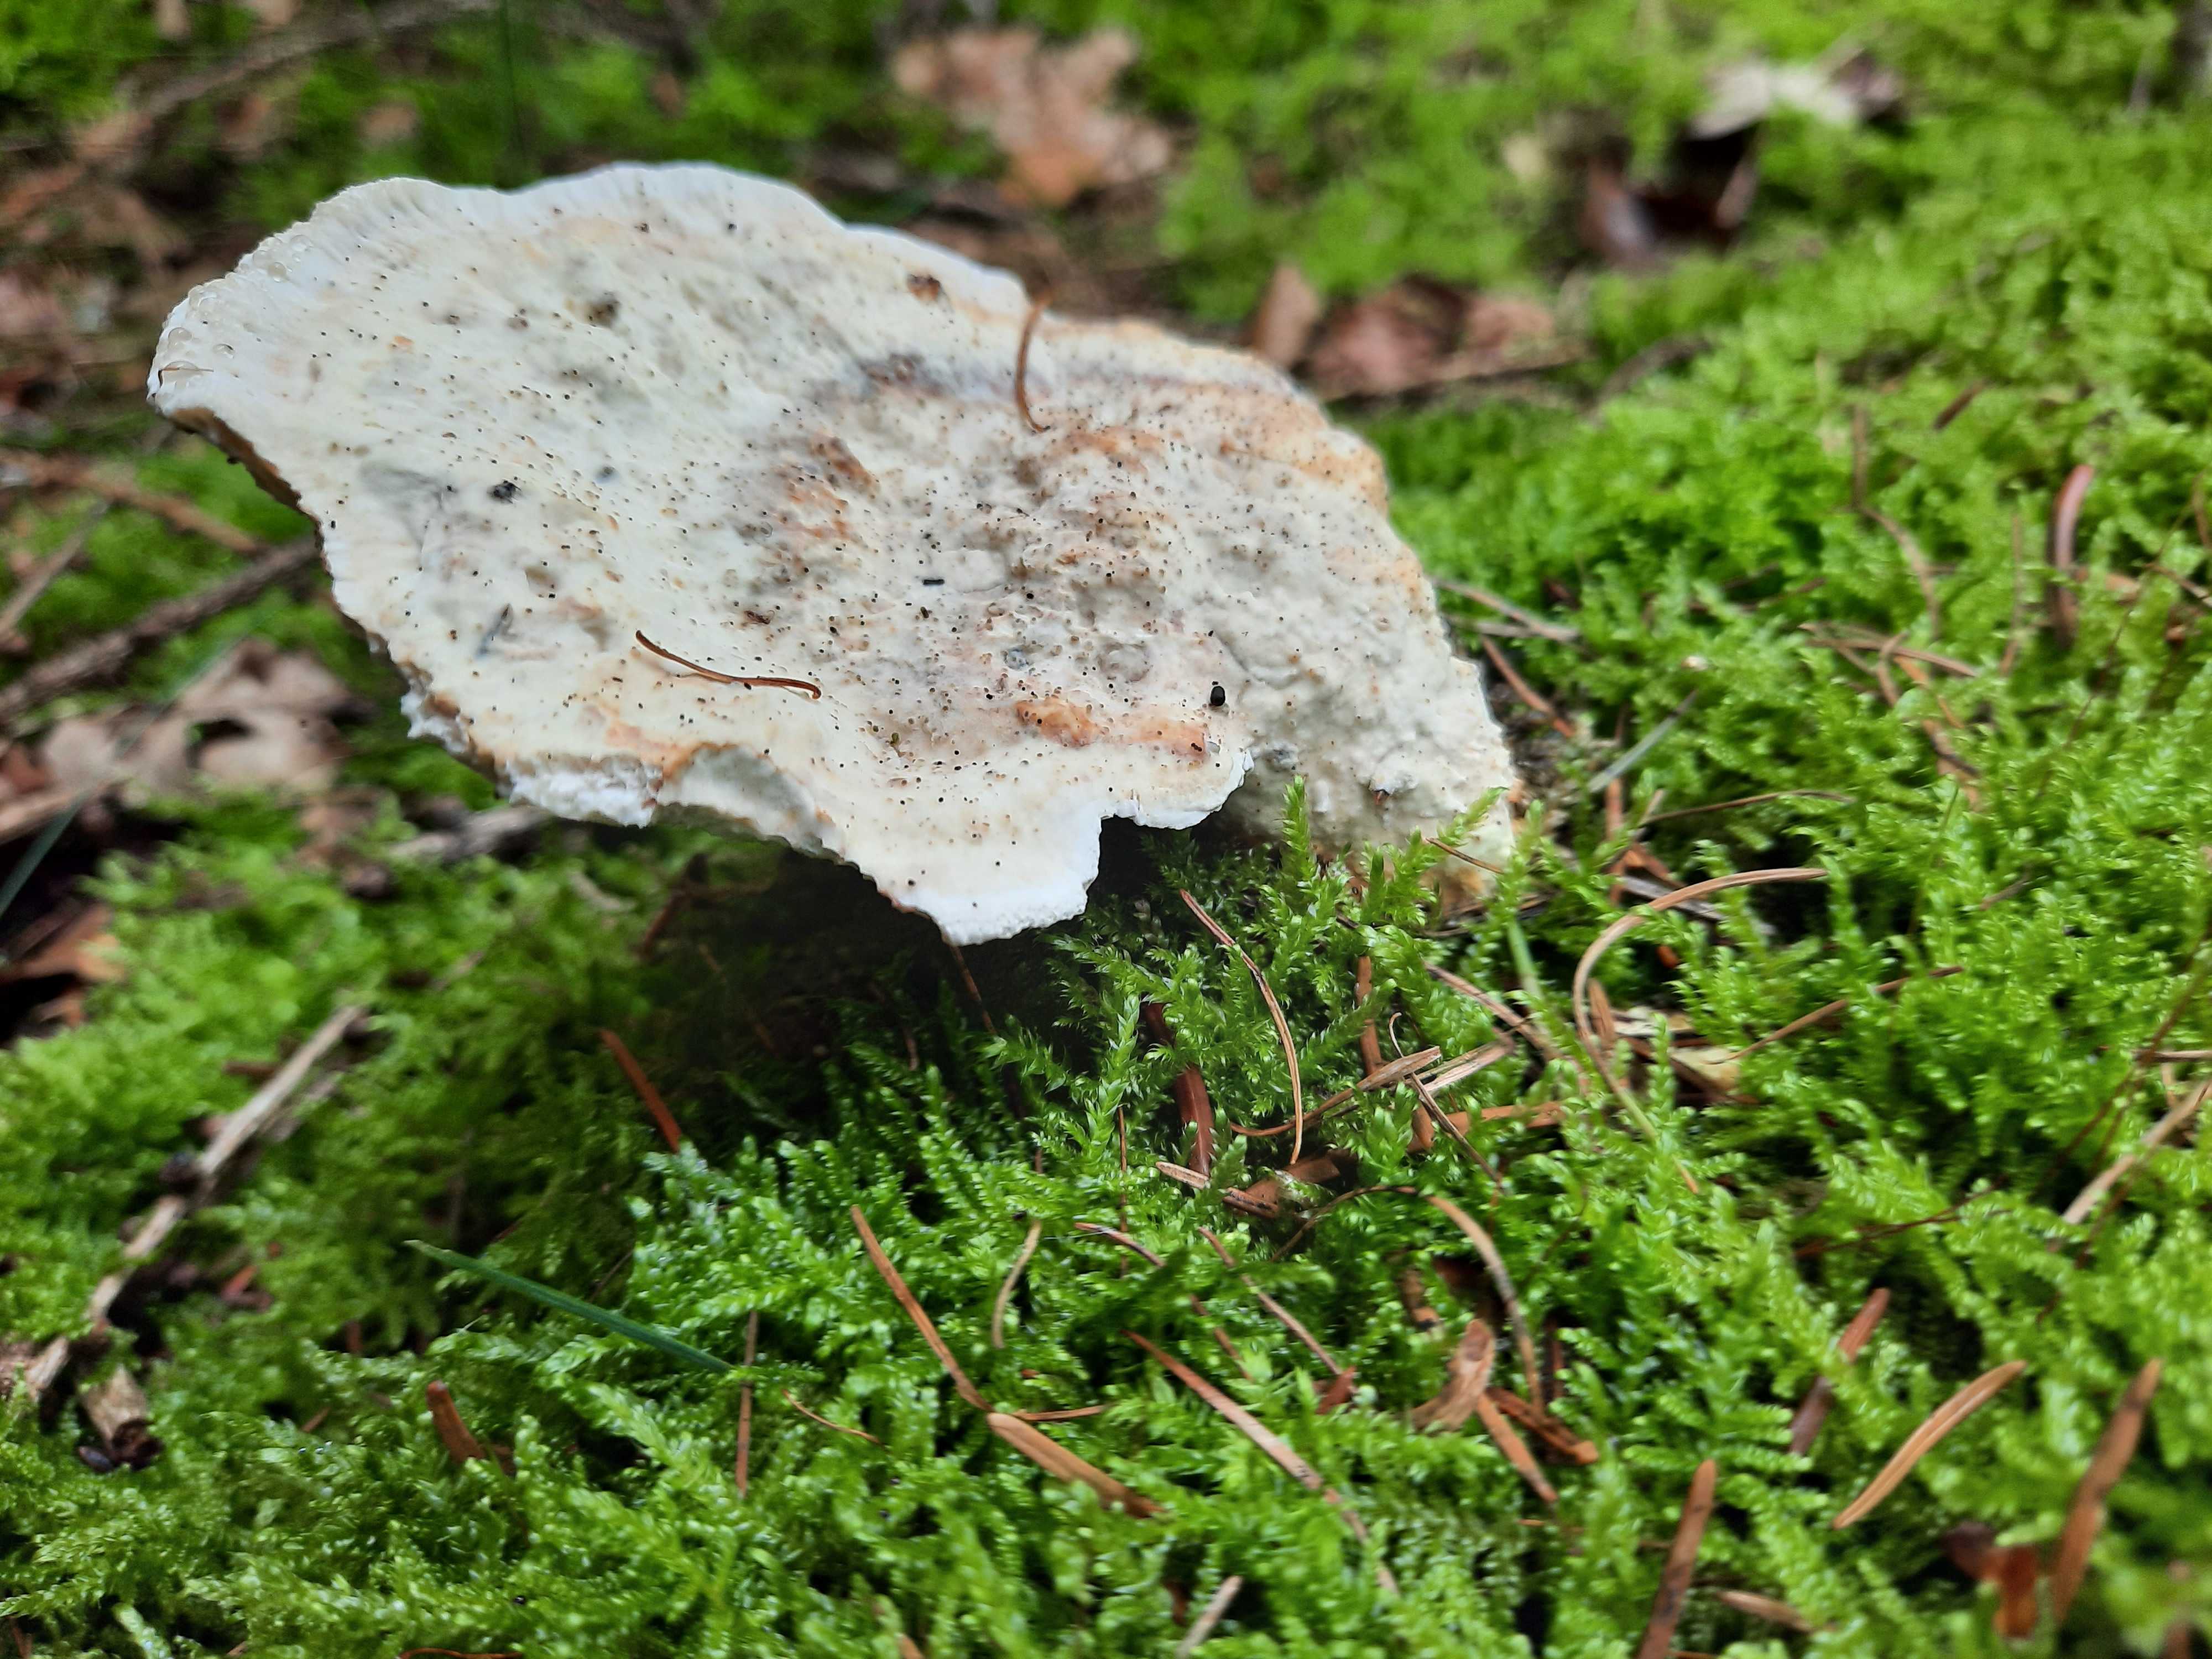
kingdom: Fungi
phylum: Basidiomycota
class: Agaricomycetes
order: Polyporales
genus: Calcipostia
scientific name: Calcipostia guttulata
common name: dråbe-kødporesvamp
